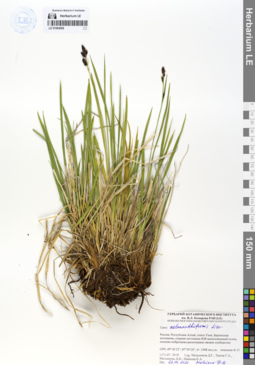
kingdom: Plantae
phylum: Tracheophyta
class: Liliopsida
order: Poales
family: Cyperaceae
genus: Carex
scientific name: Carex melananthiformis
